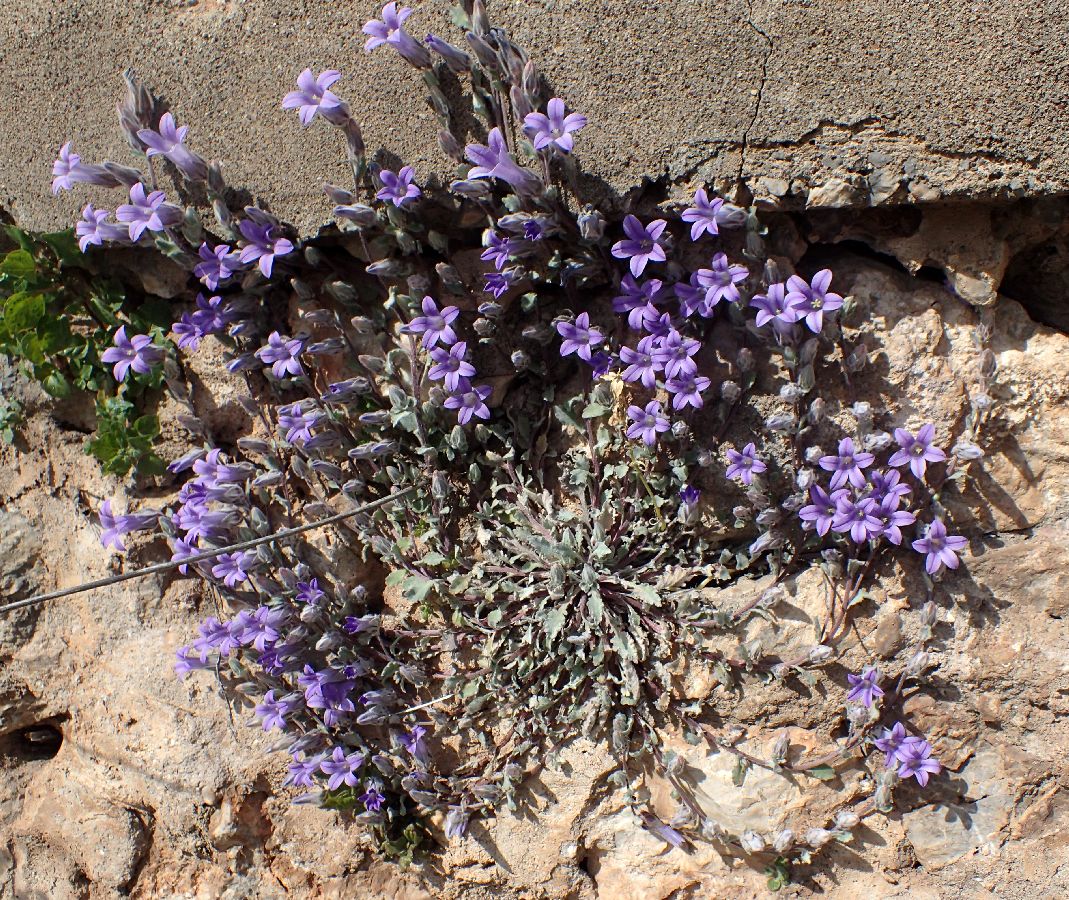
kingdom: Plantae
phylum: Tracheophyta
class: Magnoliopsida
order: Asterales
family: Campanulaceae
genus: Campanula
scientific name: Campanula topaliana
